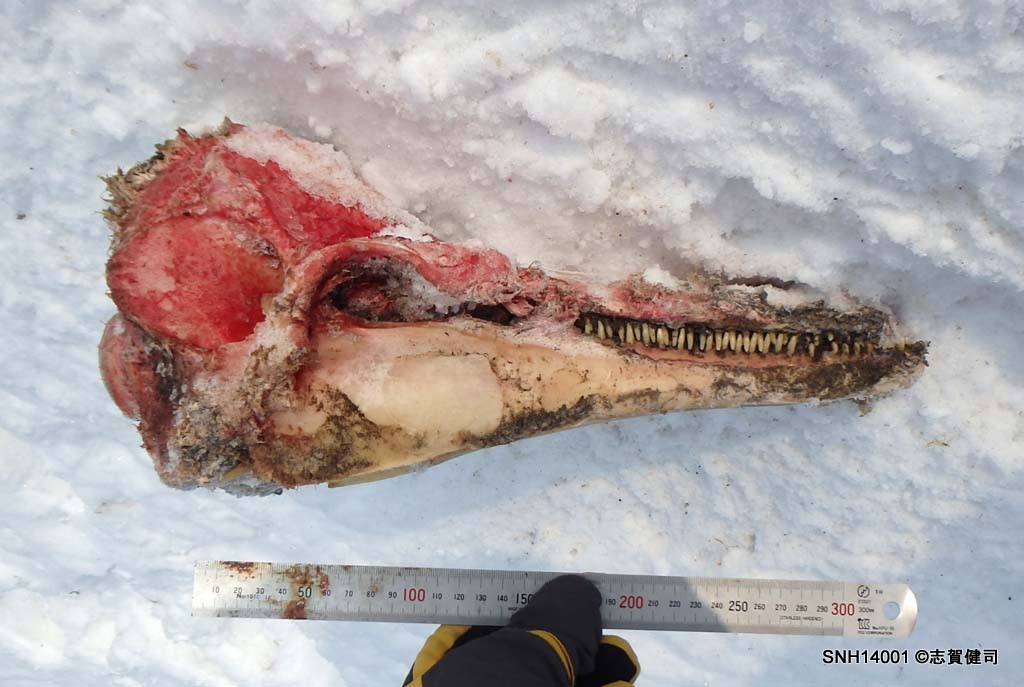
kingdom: Animalia
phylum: Chordata
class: Mammalia
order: Cetacea
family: Delphinidae
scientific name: Delphinidae
